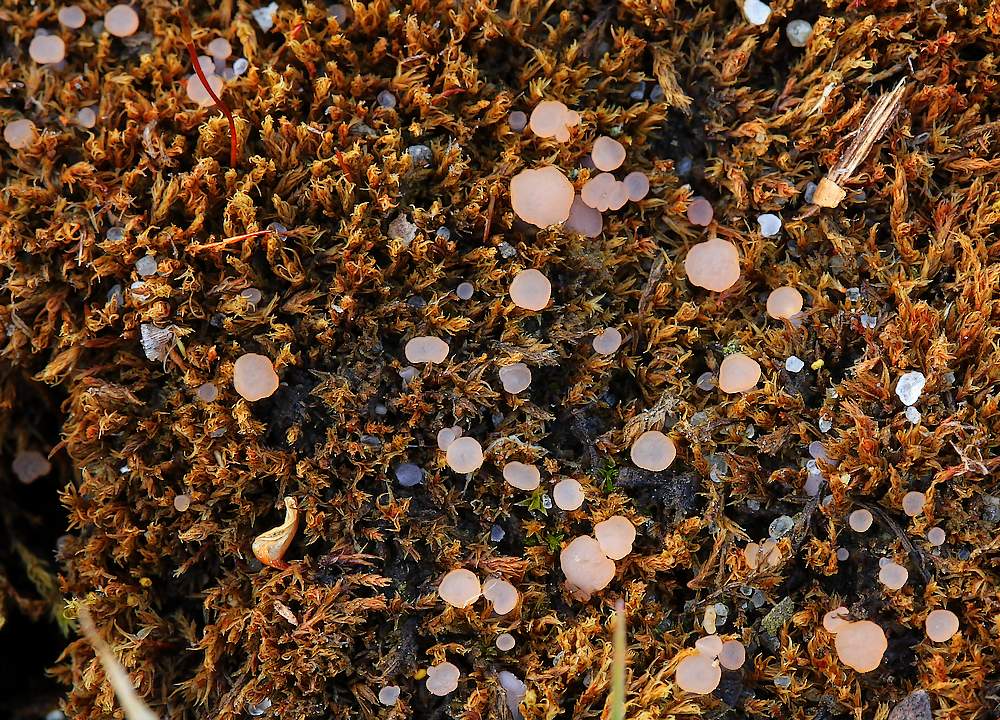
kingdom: Fungi
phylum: Ascomycota
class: Leotiomycetes
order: Helotiales
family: Hyaloscyphaceae
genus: Roseodiscus
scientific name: Roseodiscus formosus
